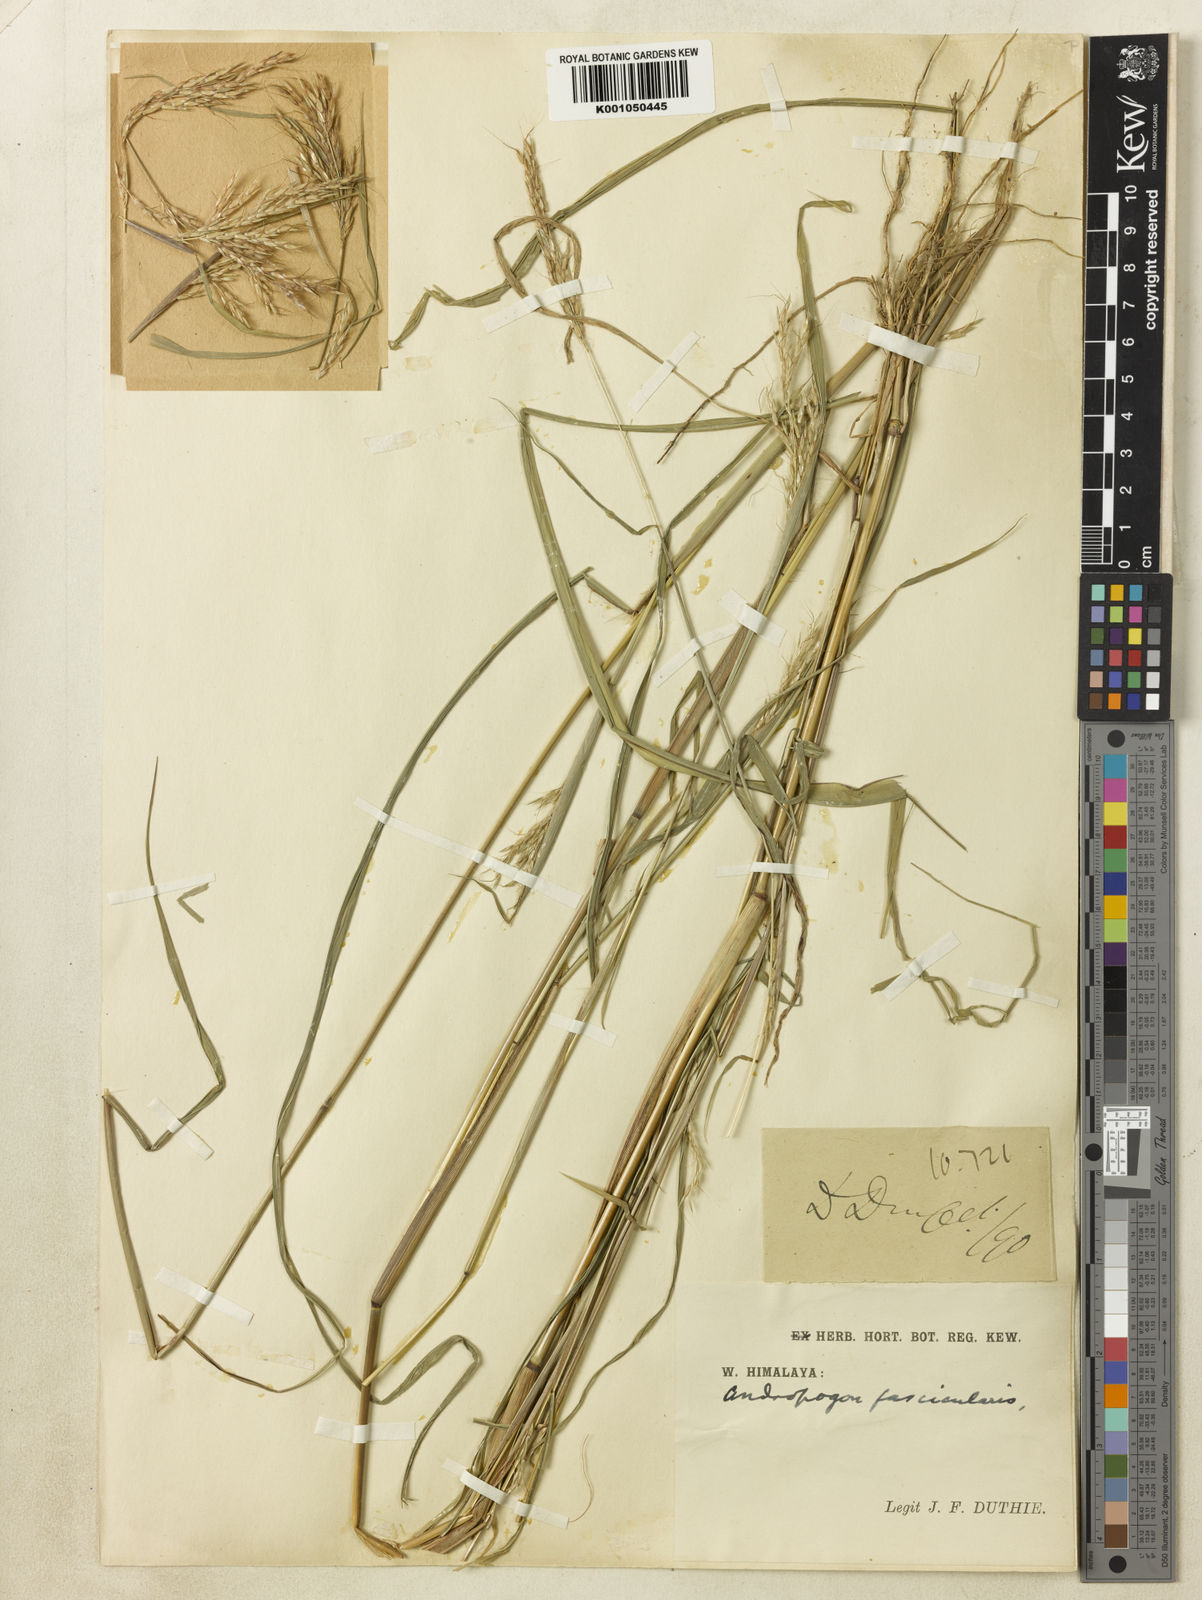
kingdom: Plantae
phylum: Tracheophyta
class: Liliopsida
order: Poales
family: Poaceae
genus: Pseudosorghum
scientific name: Pseudosorghum fasciculare
